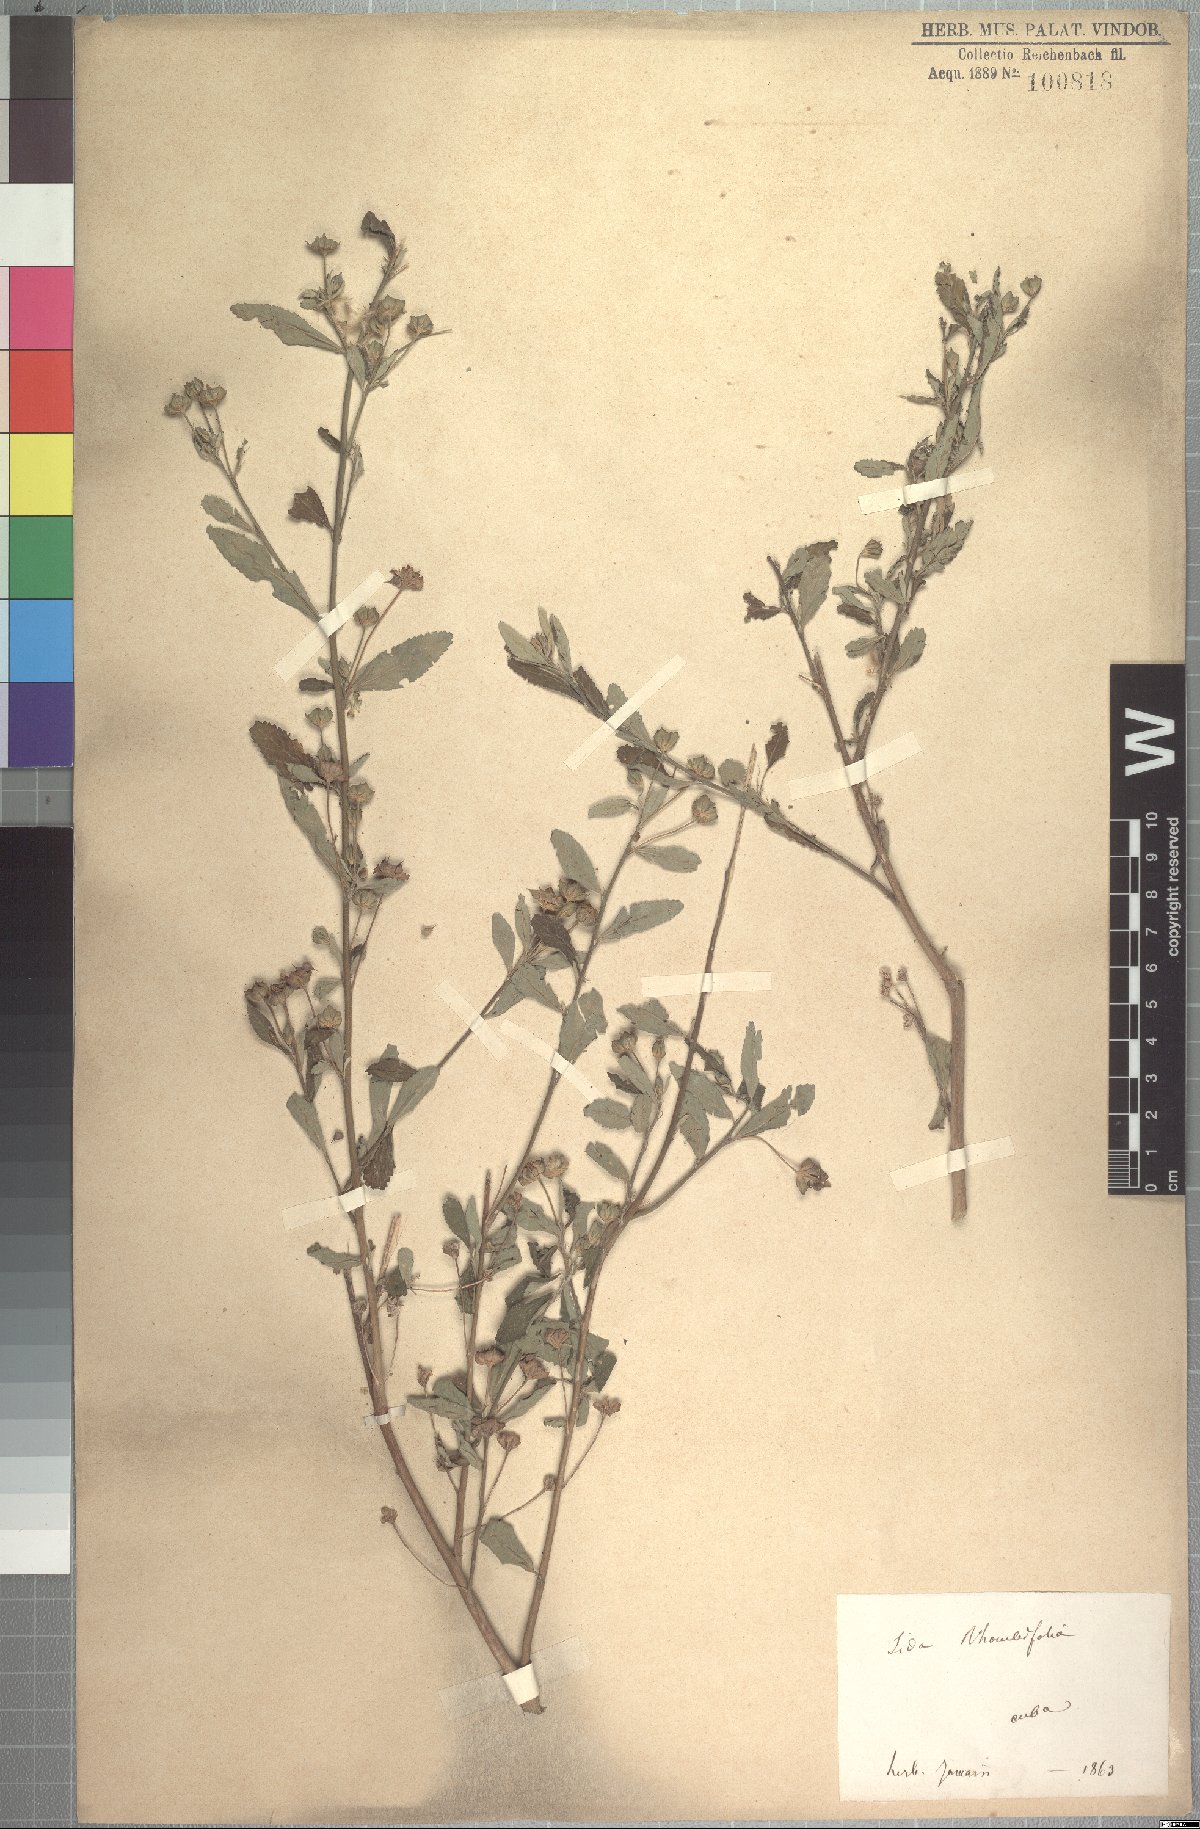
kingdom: Plantae
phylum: Tracheophyta
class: Magnoliopsida
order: Malvales
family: Malvaceae
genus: Sida
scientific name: Sida rhombifolia
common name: Queensland-hemp
